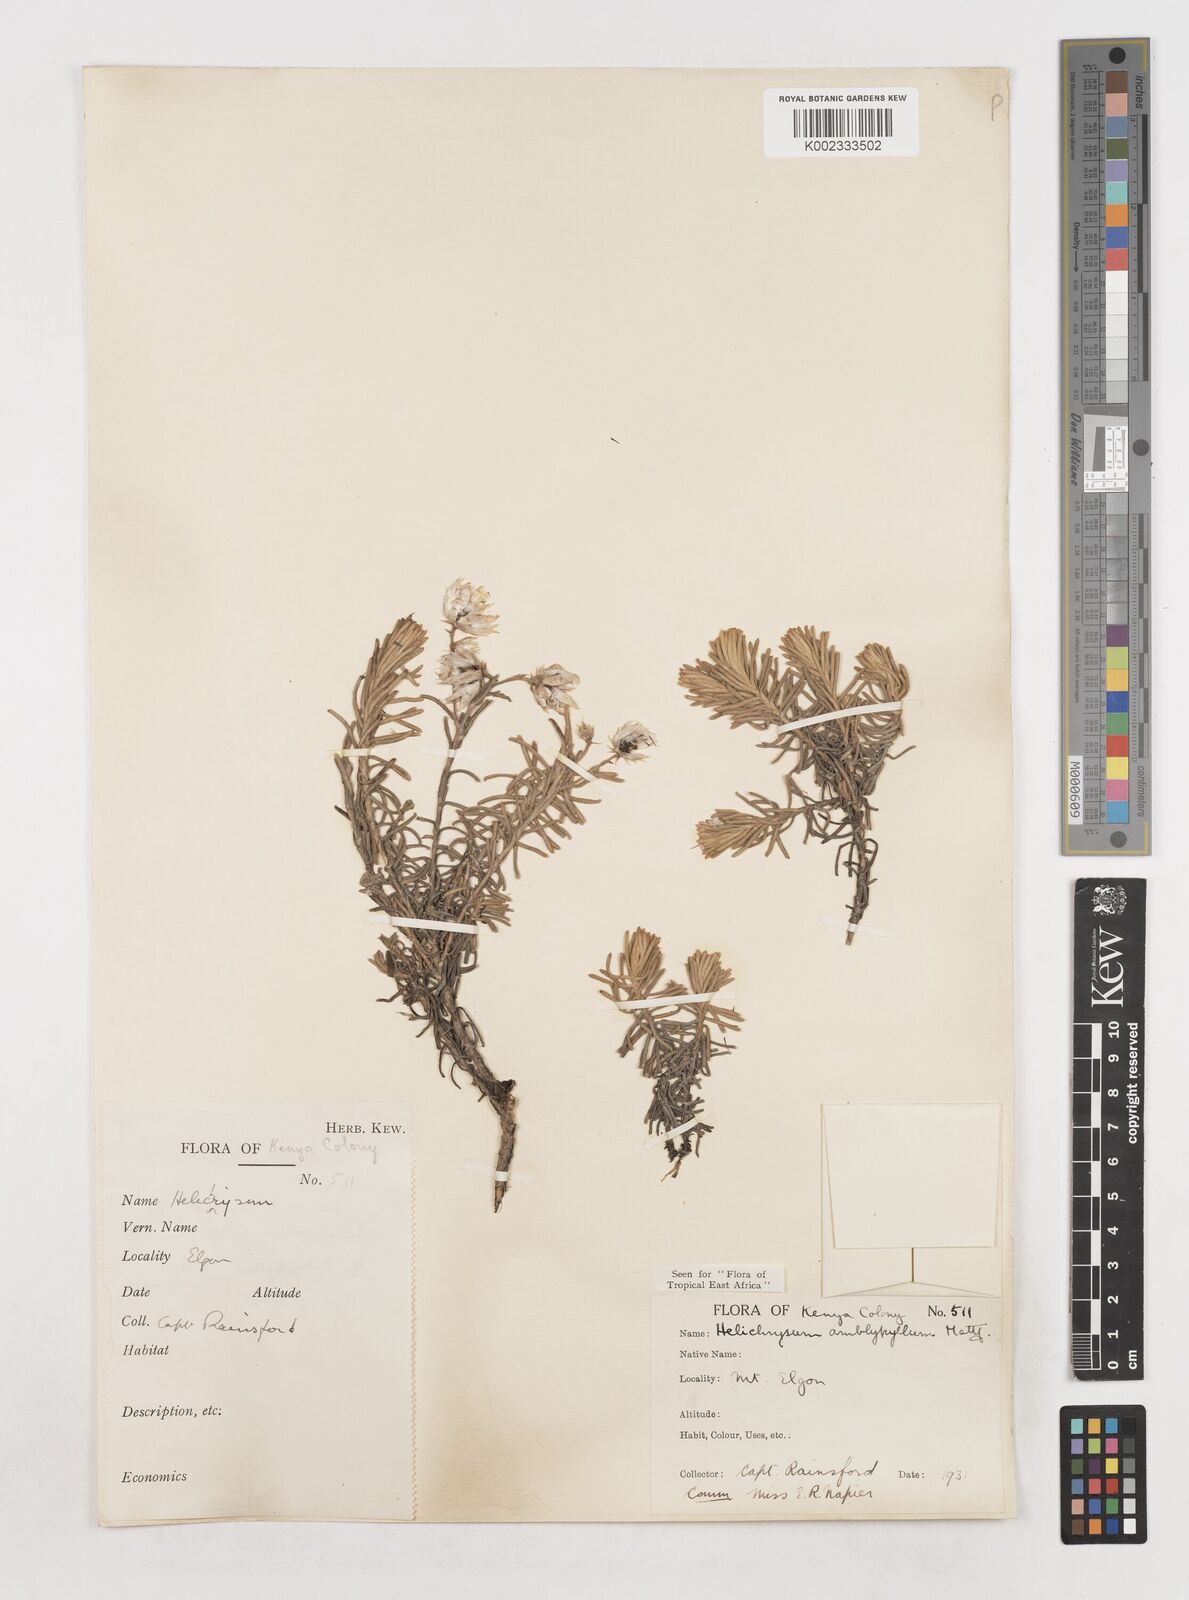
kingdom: Plantae
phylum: Tracheophyta
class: Magnoliopsida
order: Asterales
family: Asteraceae
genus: Helichrysum
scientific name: Helichrysum amblyphyllum
